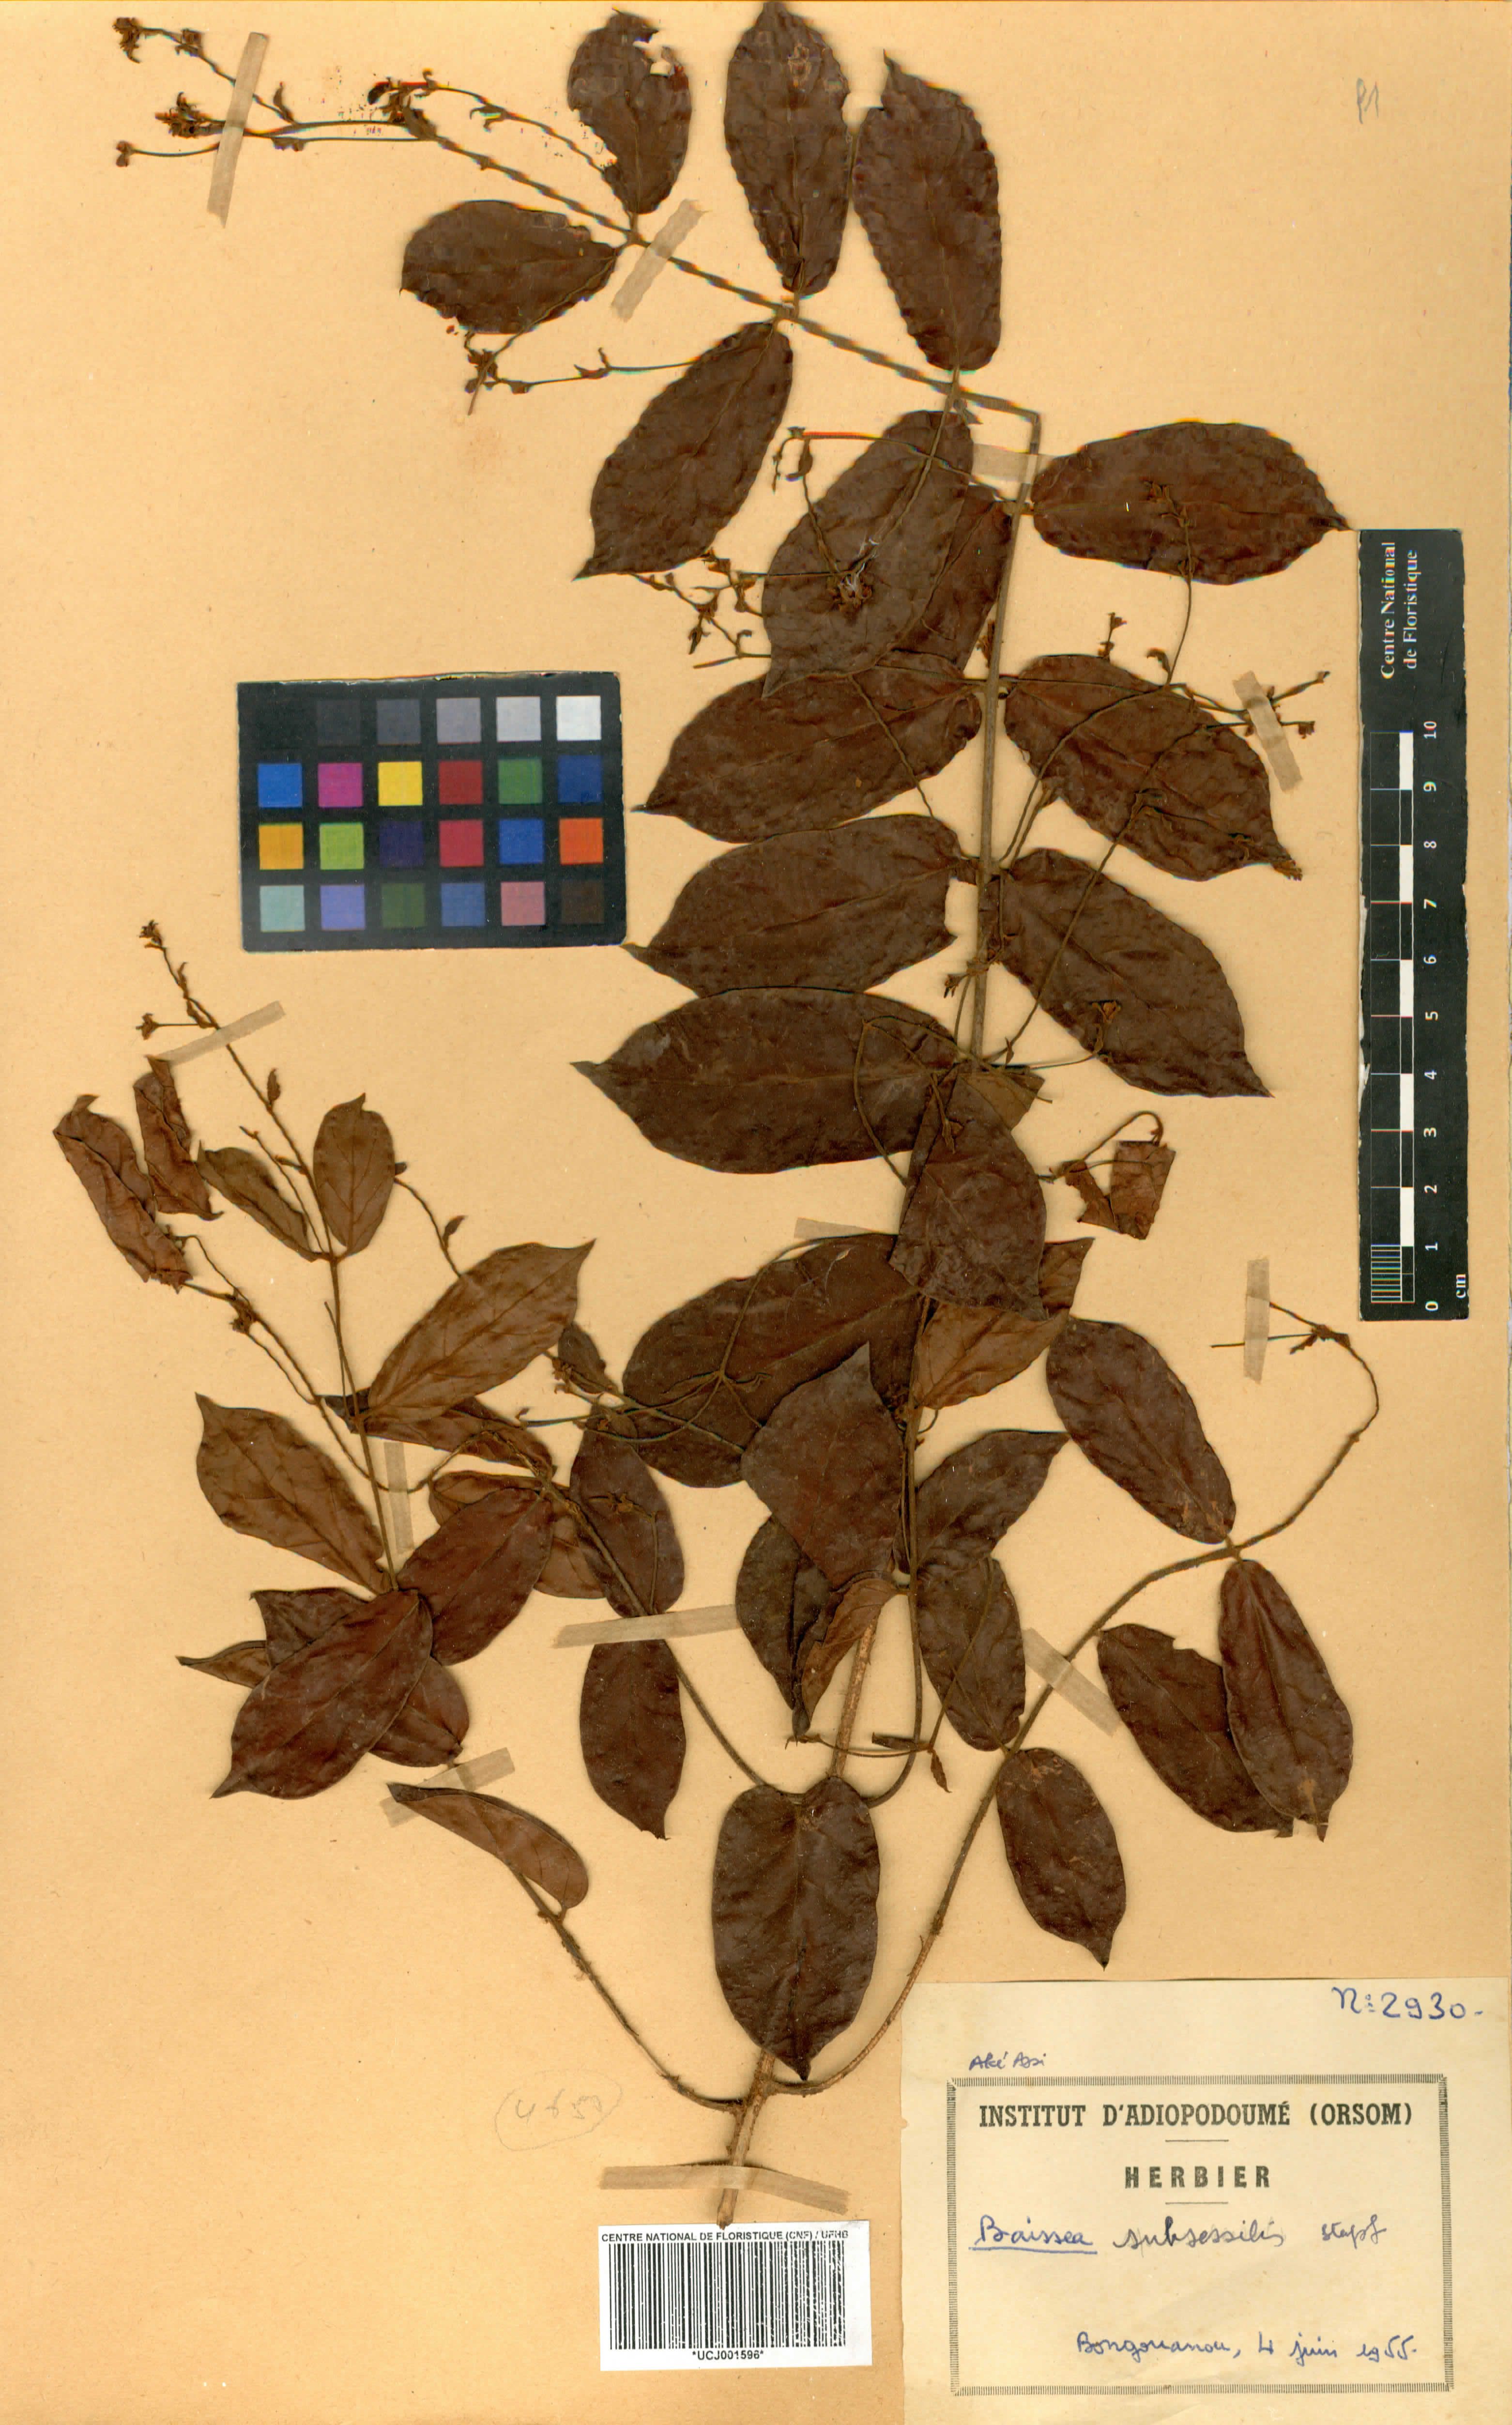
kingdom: Plantae
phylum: Tracheophyta
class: Magnoliopsida
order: Gentianales
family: Apocynaceae
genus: Baissea
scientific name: Baissea campanulata
